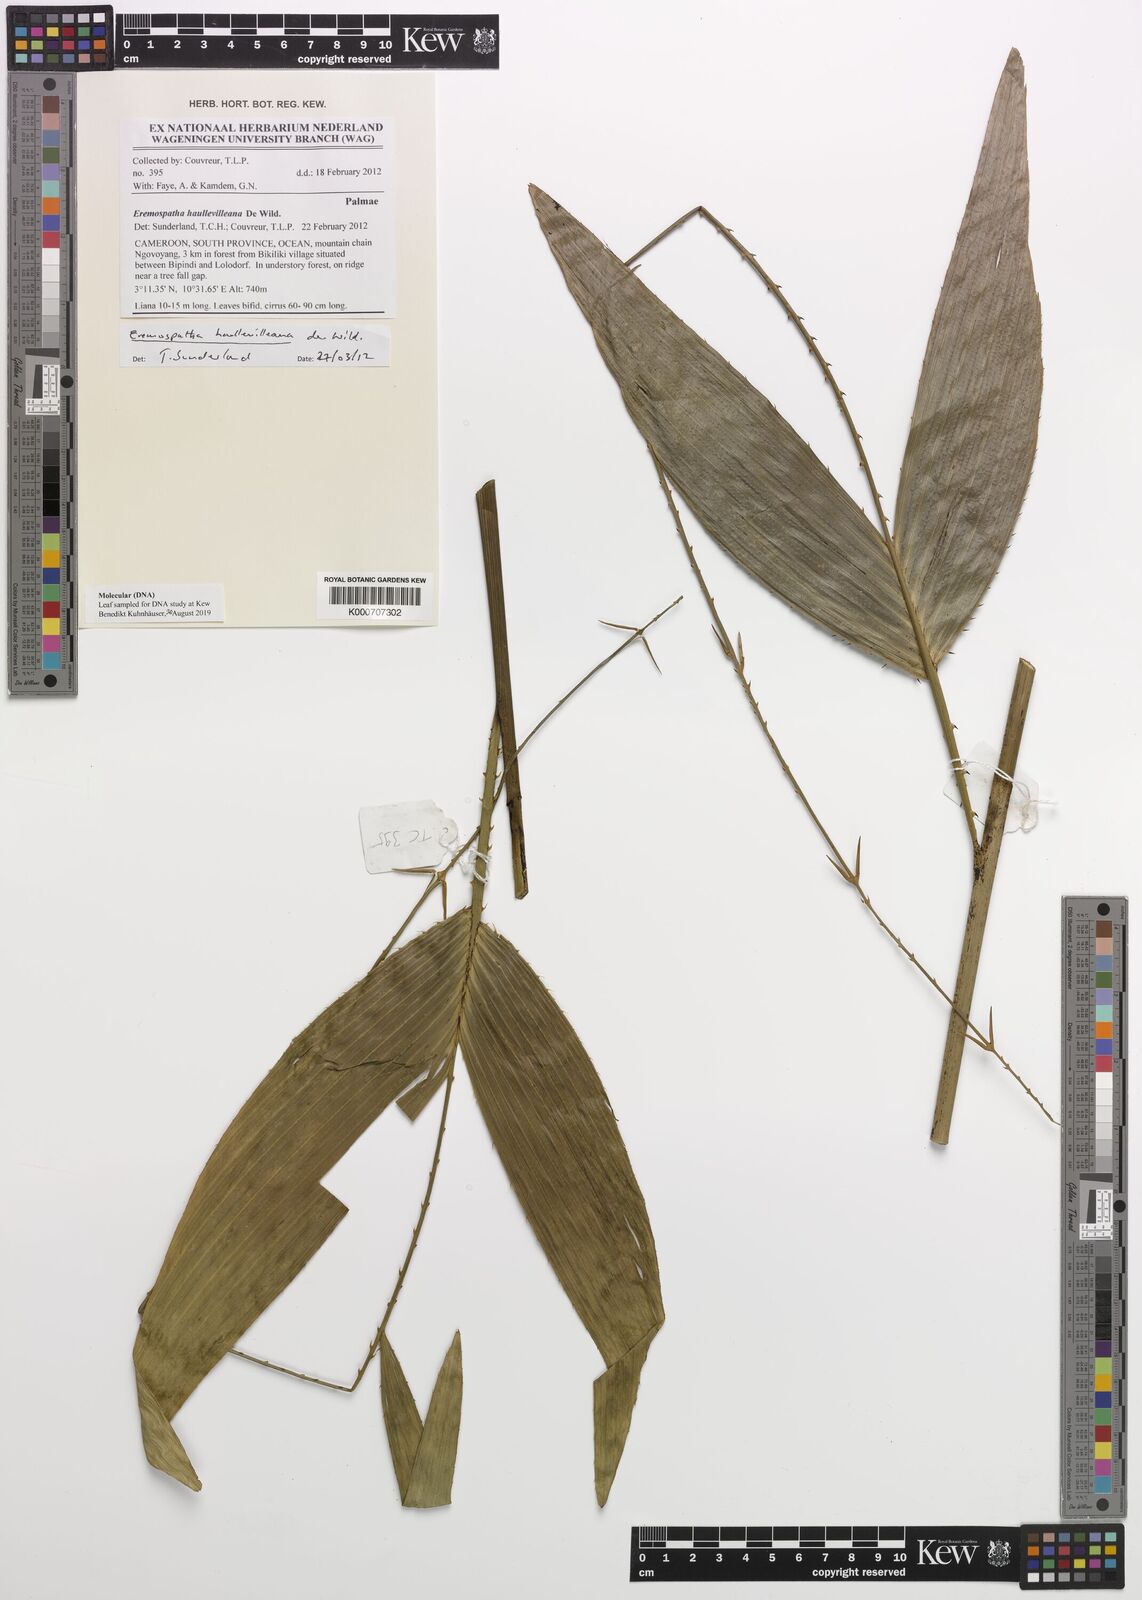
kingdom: Plantae
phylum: Tracheophyta
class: Liliopsida
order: Arecales
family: Arecaceae
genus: Eremospatha
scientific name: Eremospatha haullevilleana
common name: Rattan
